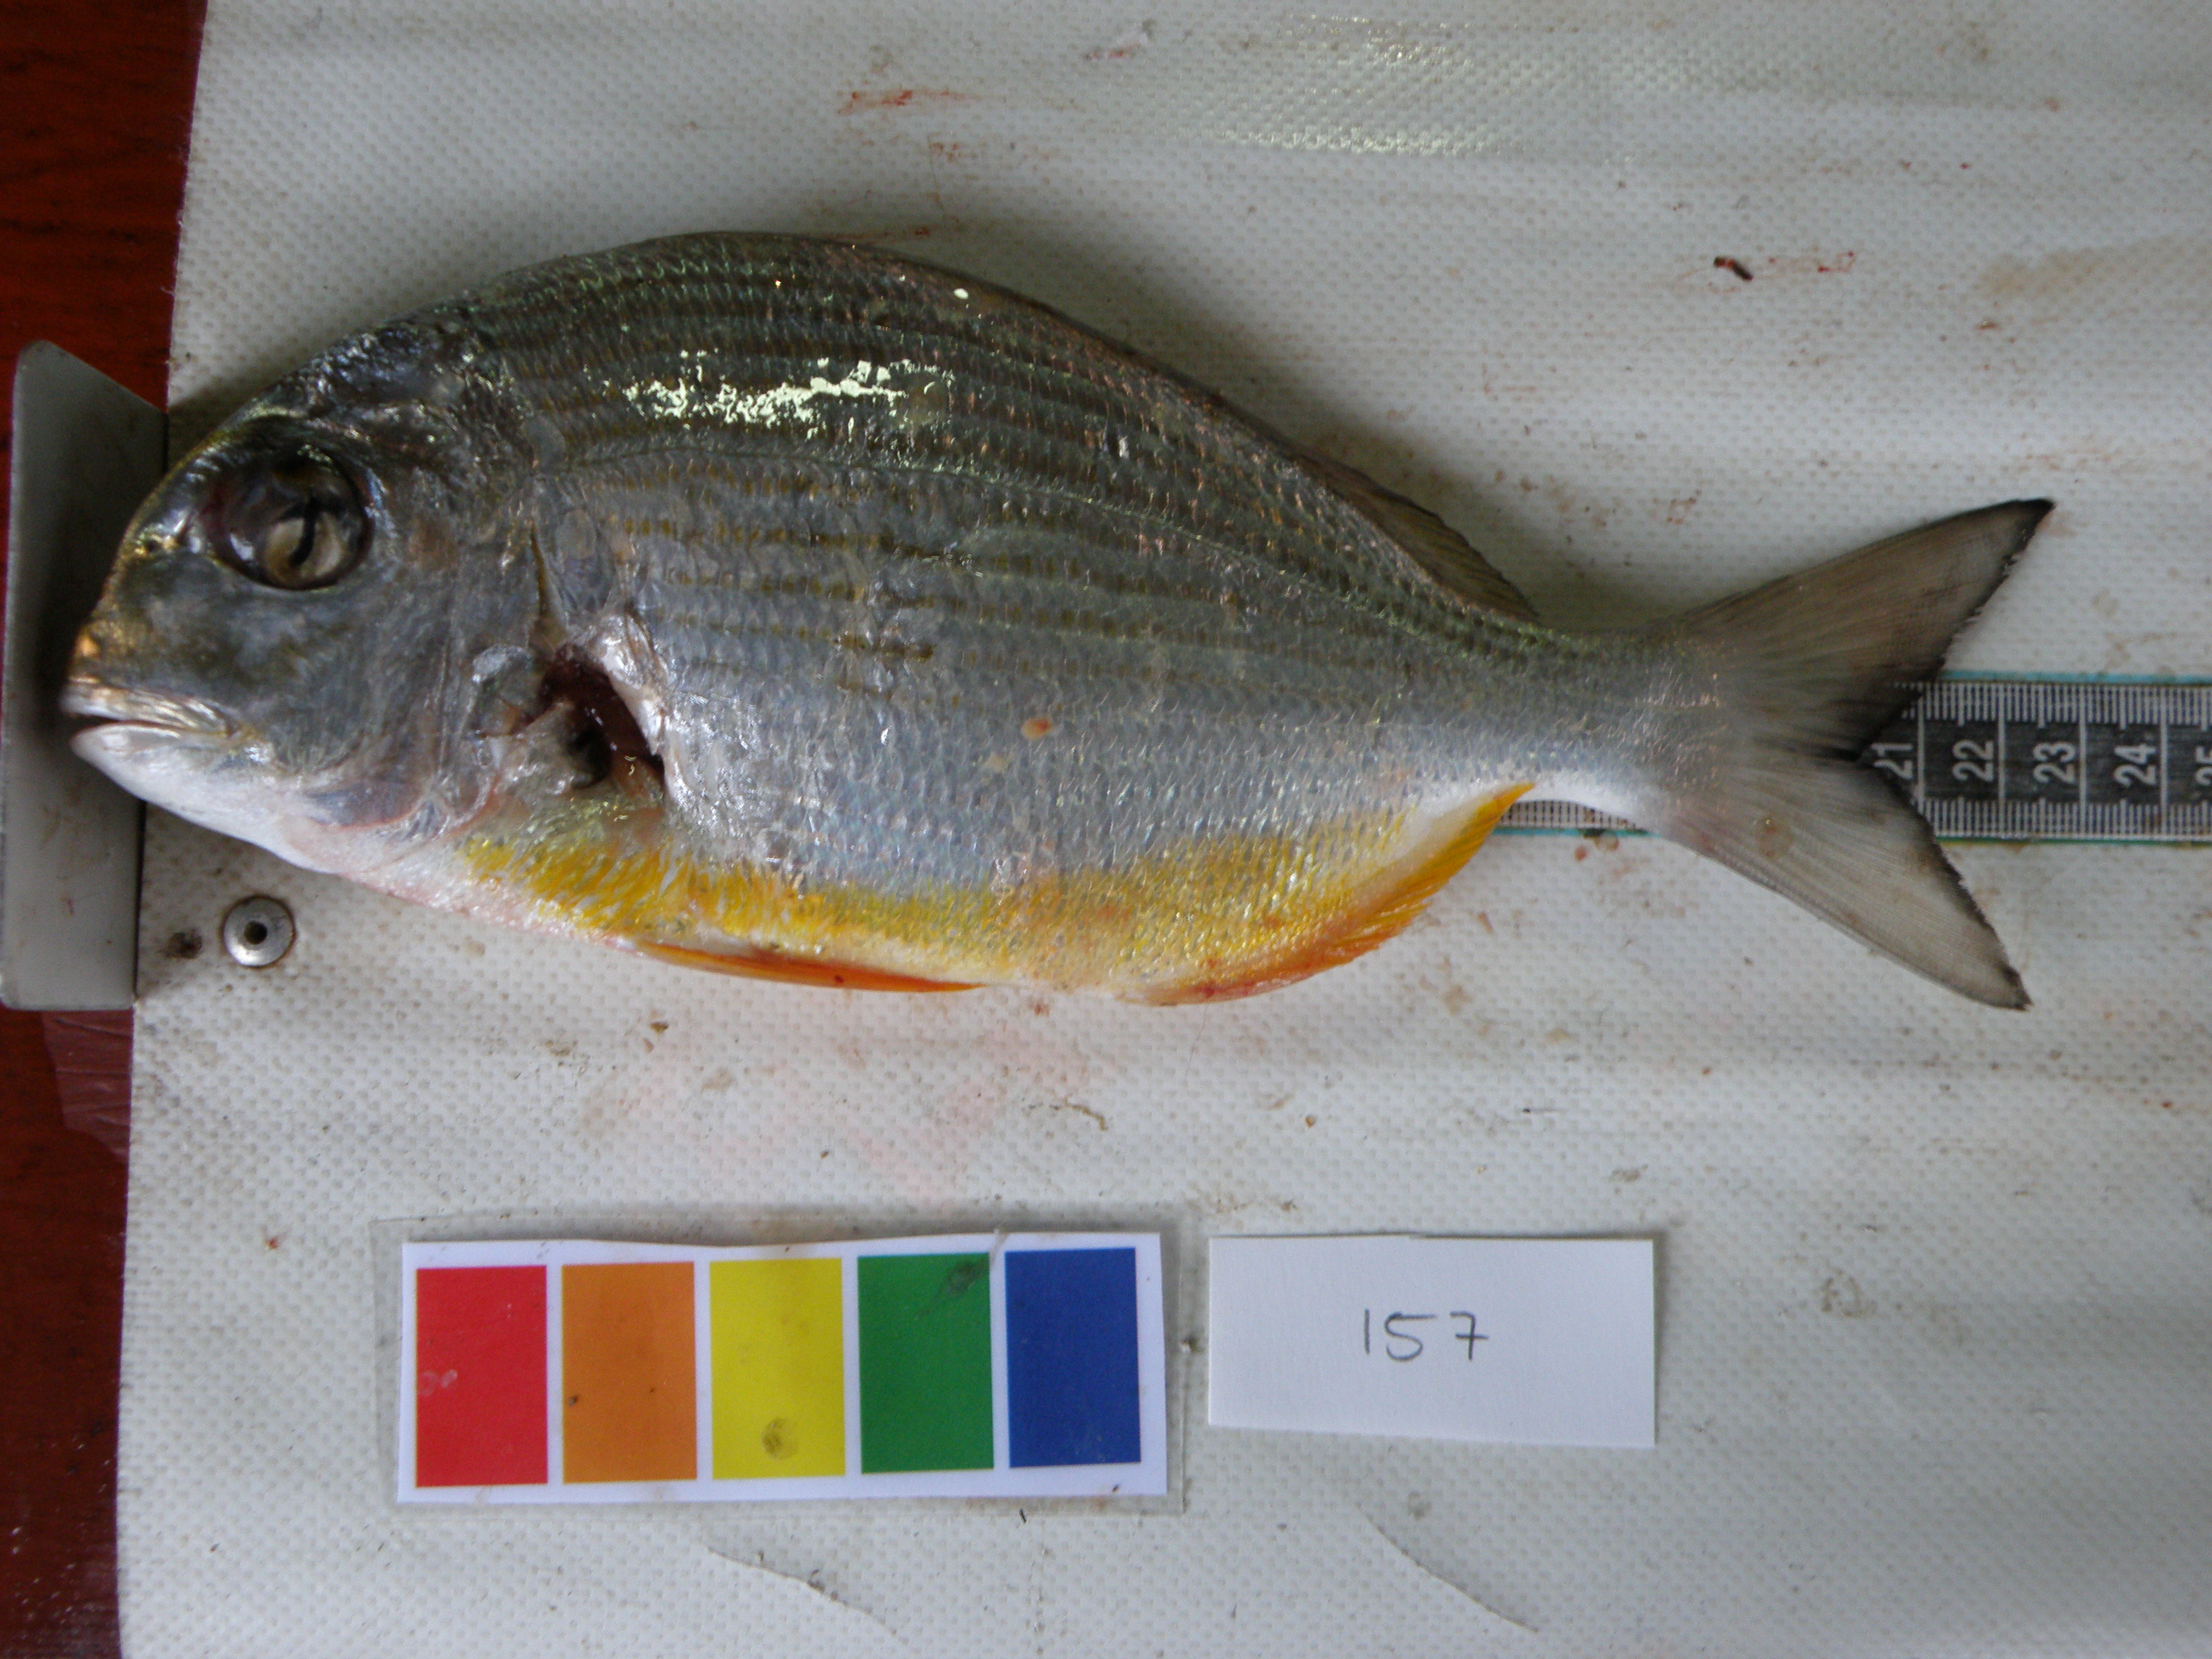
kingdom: Animalia
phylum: Chordata
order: Perciformes
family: Sparidae
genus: Rhabdosargus
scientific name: Rhabdosargus thorpei
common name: Bigeye stumpnose
